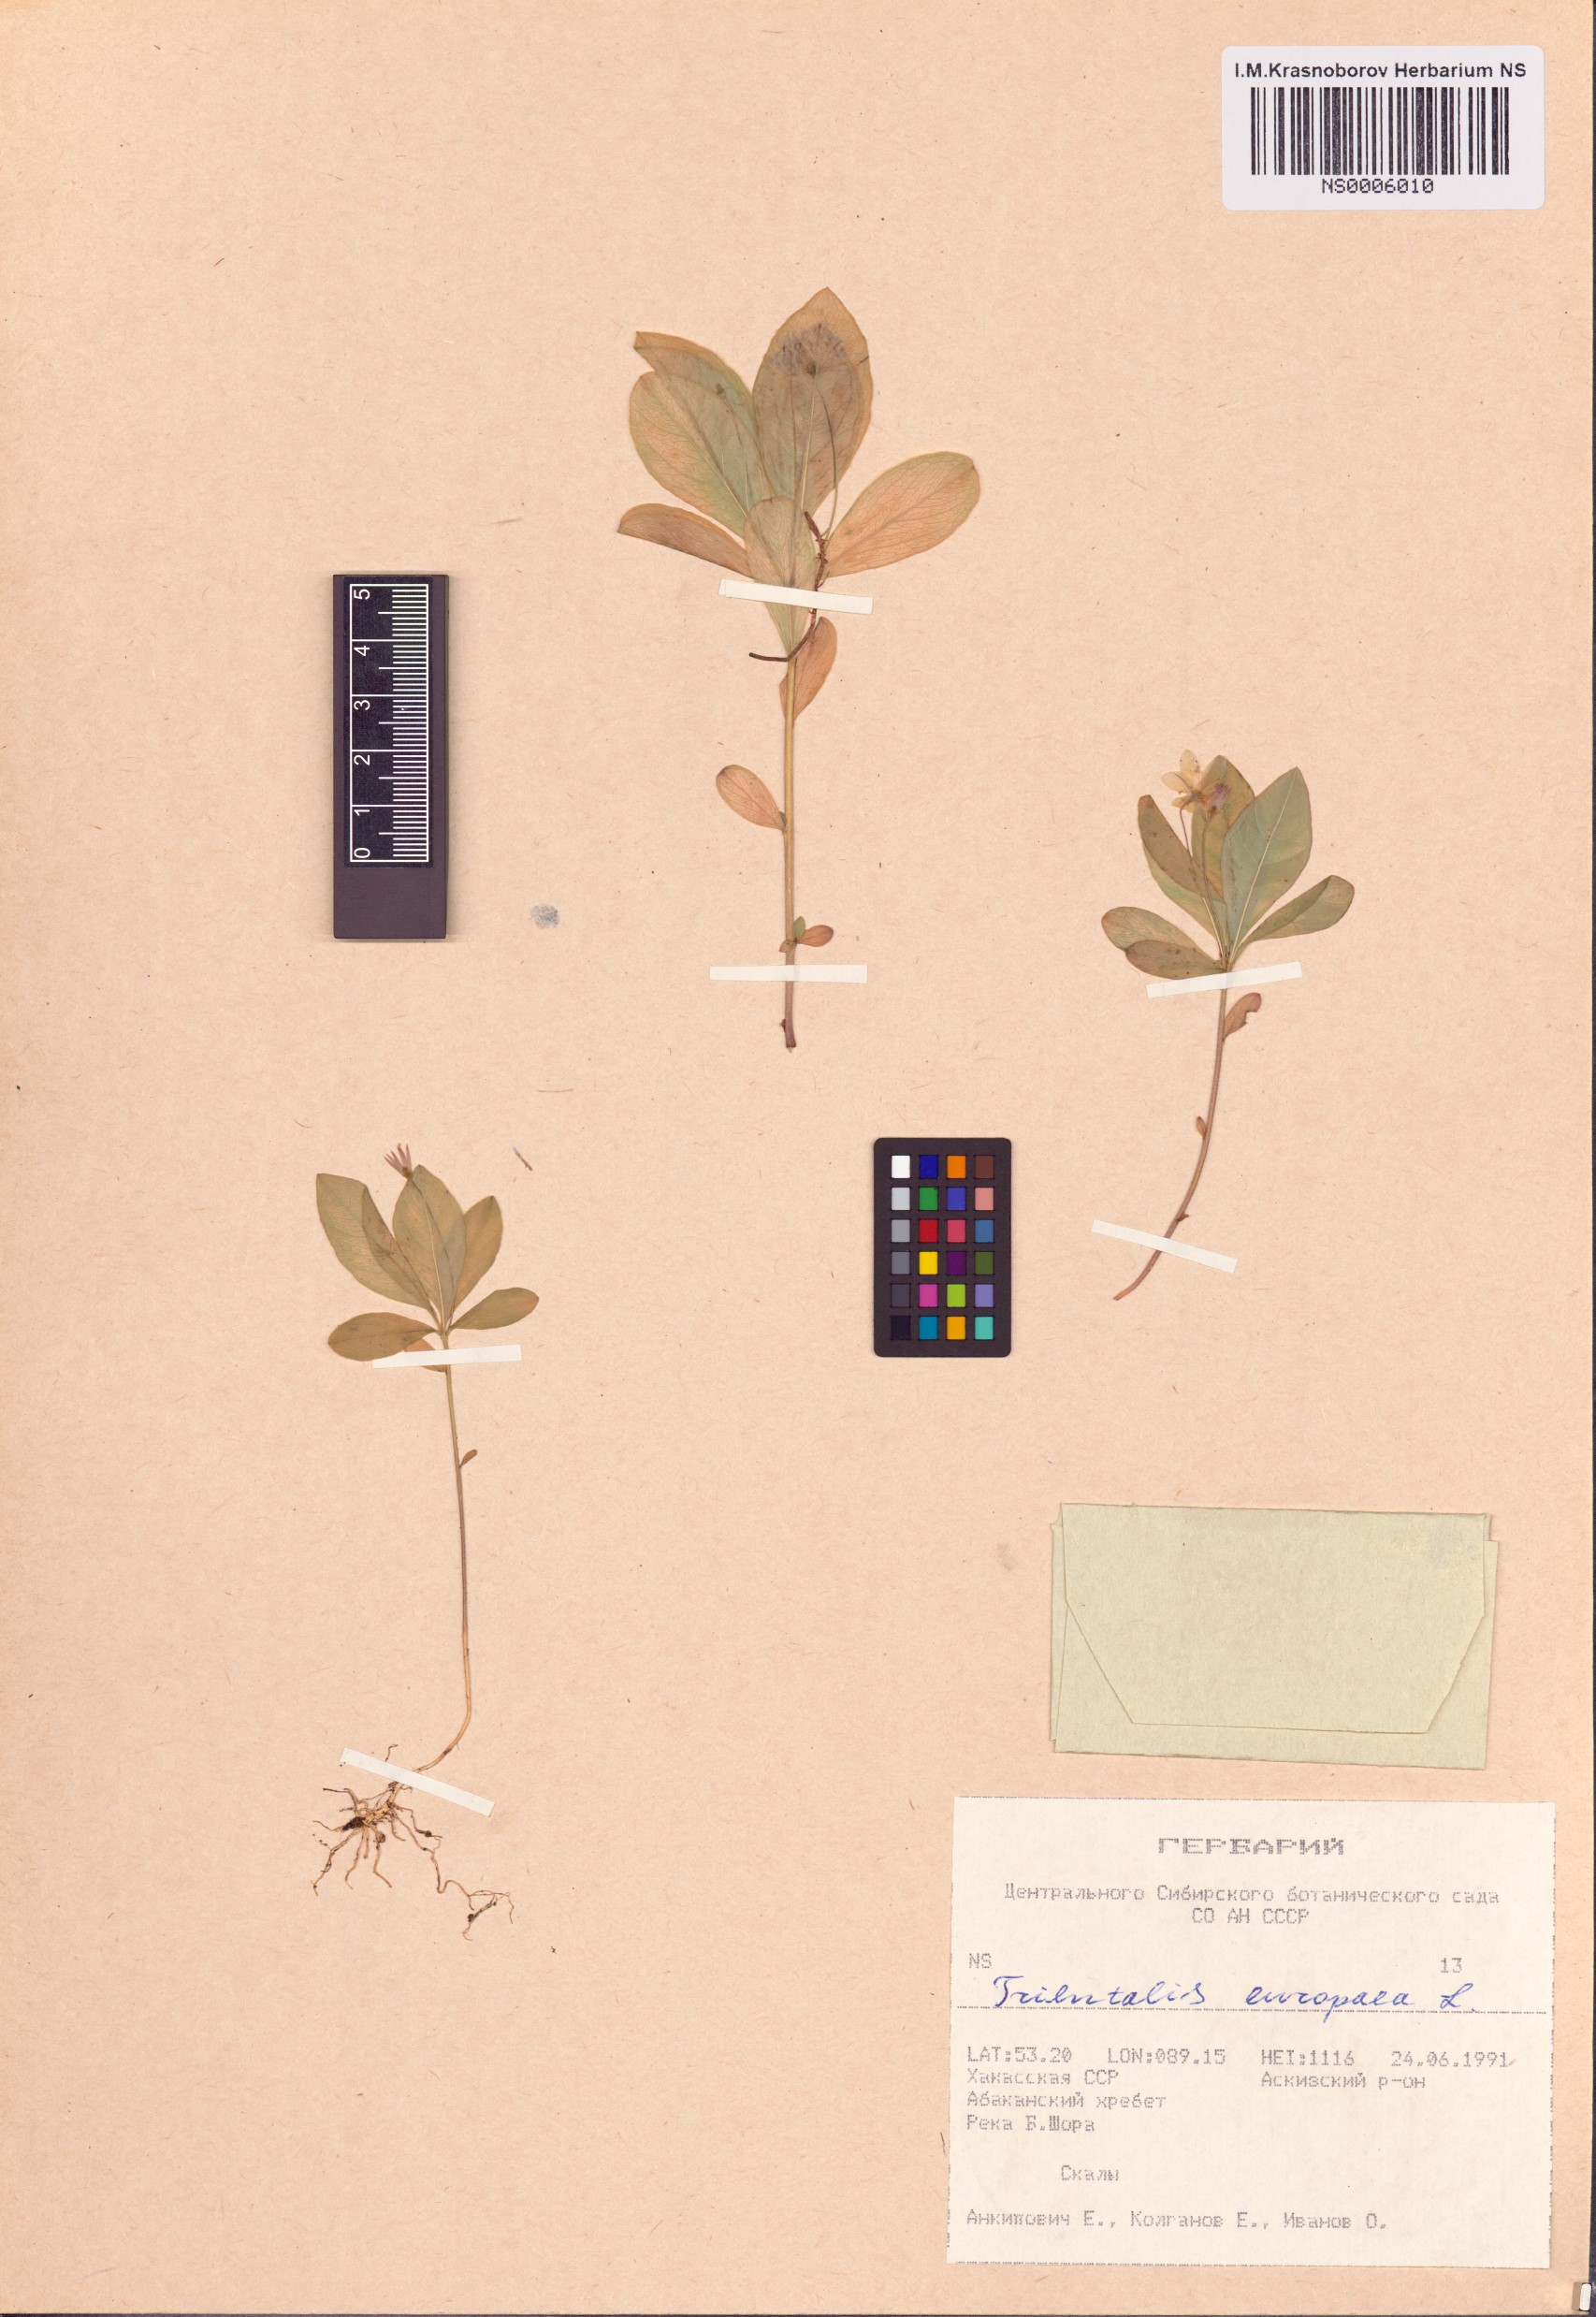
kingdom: Plantae
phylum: Tracheophyta
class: Magnoliopsida
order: Ericales
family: Primulaceae
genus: Lysimachia
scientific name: Lysimachia europaea
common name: Arctic starflower
